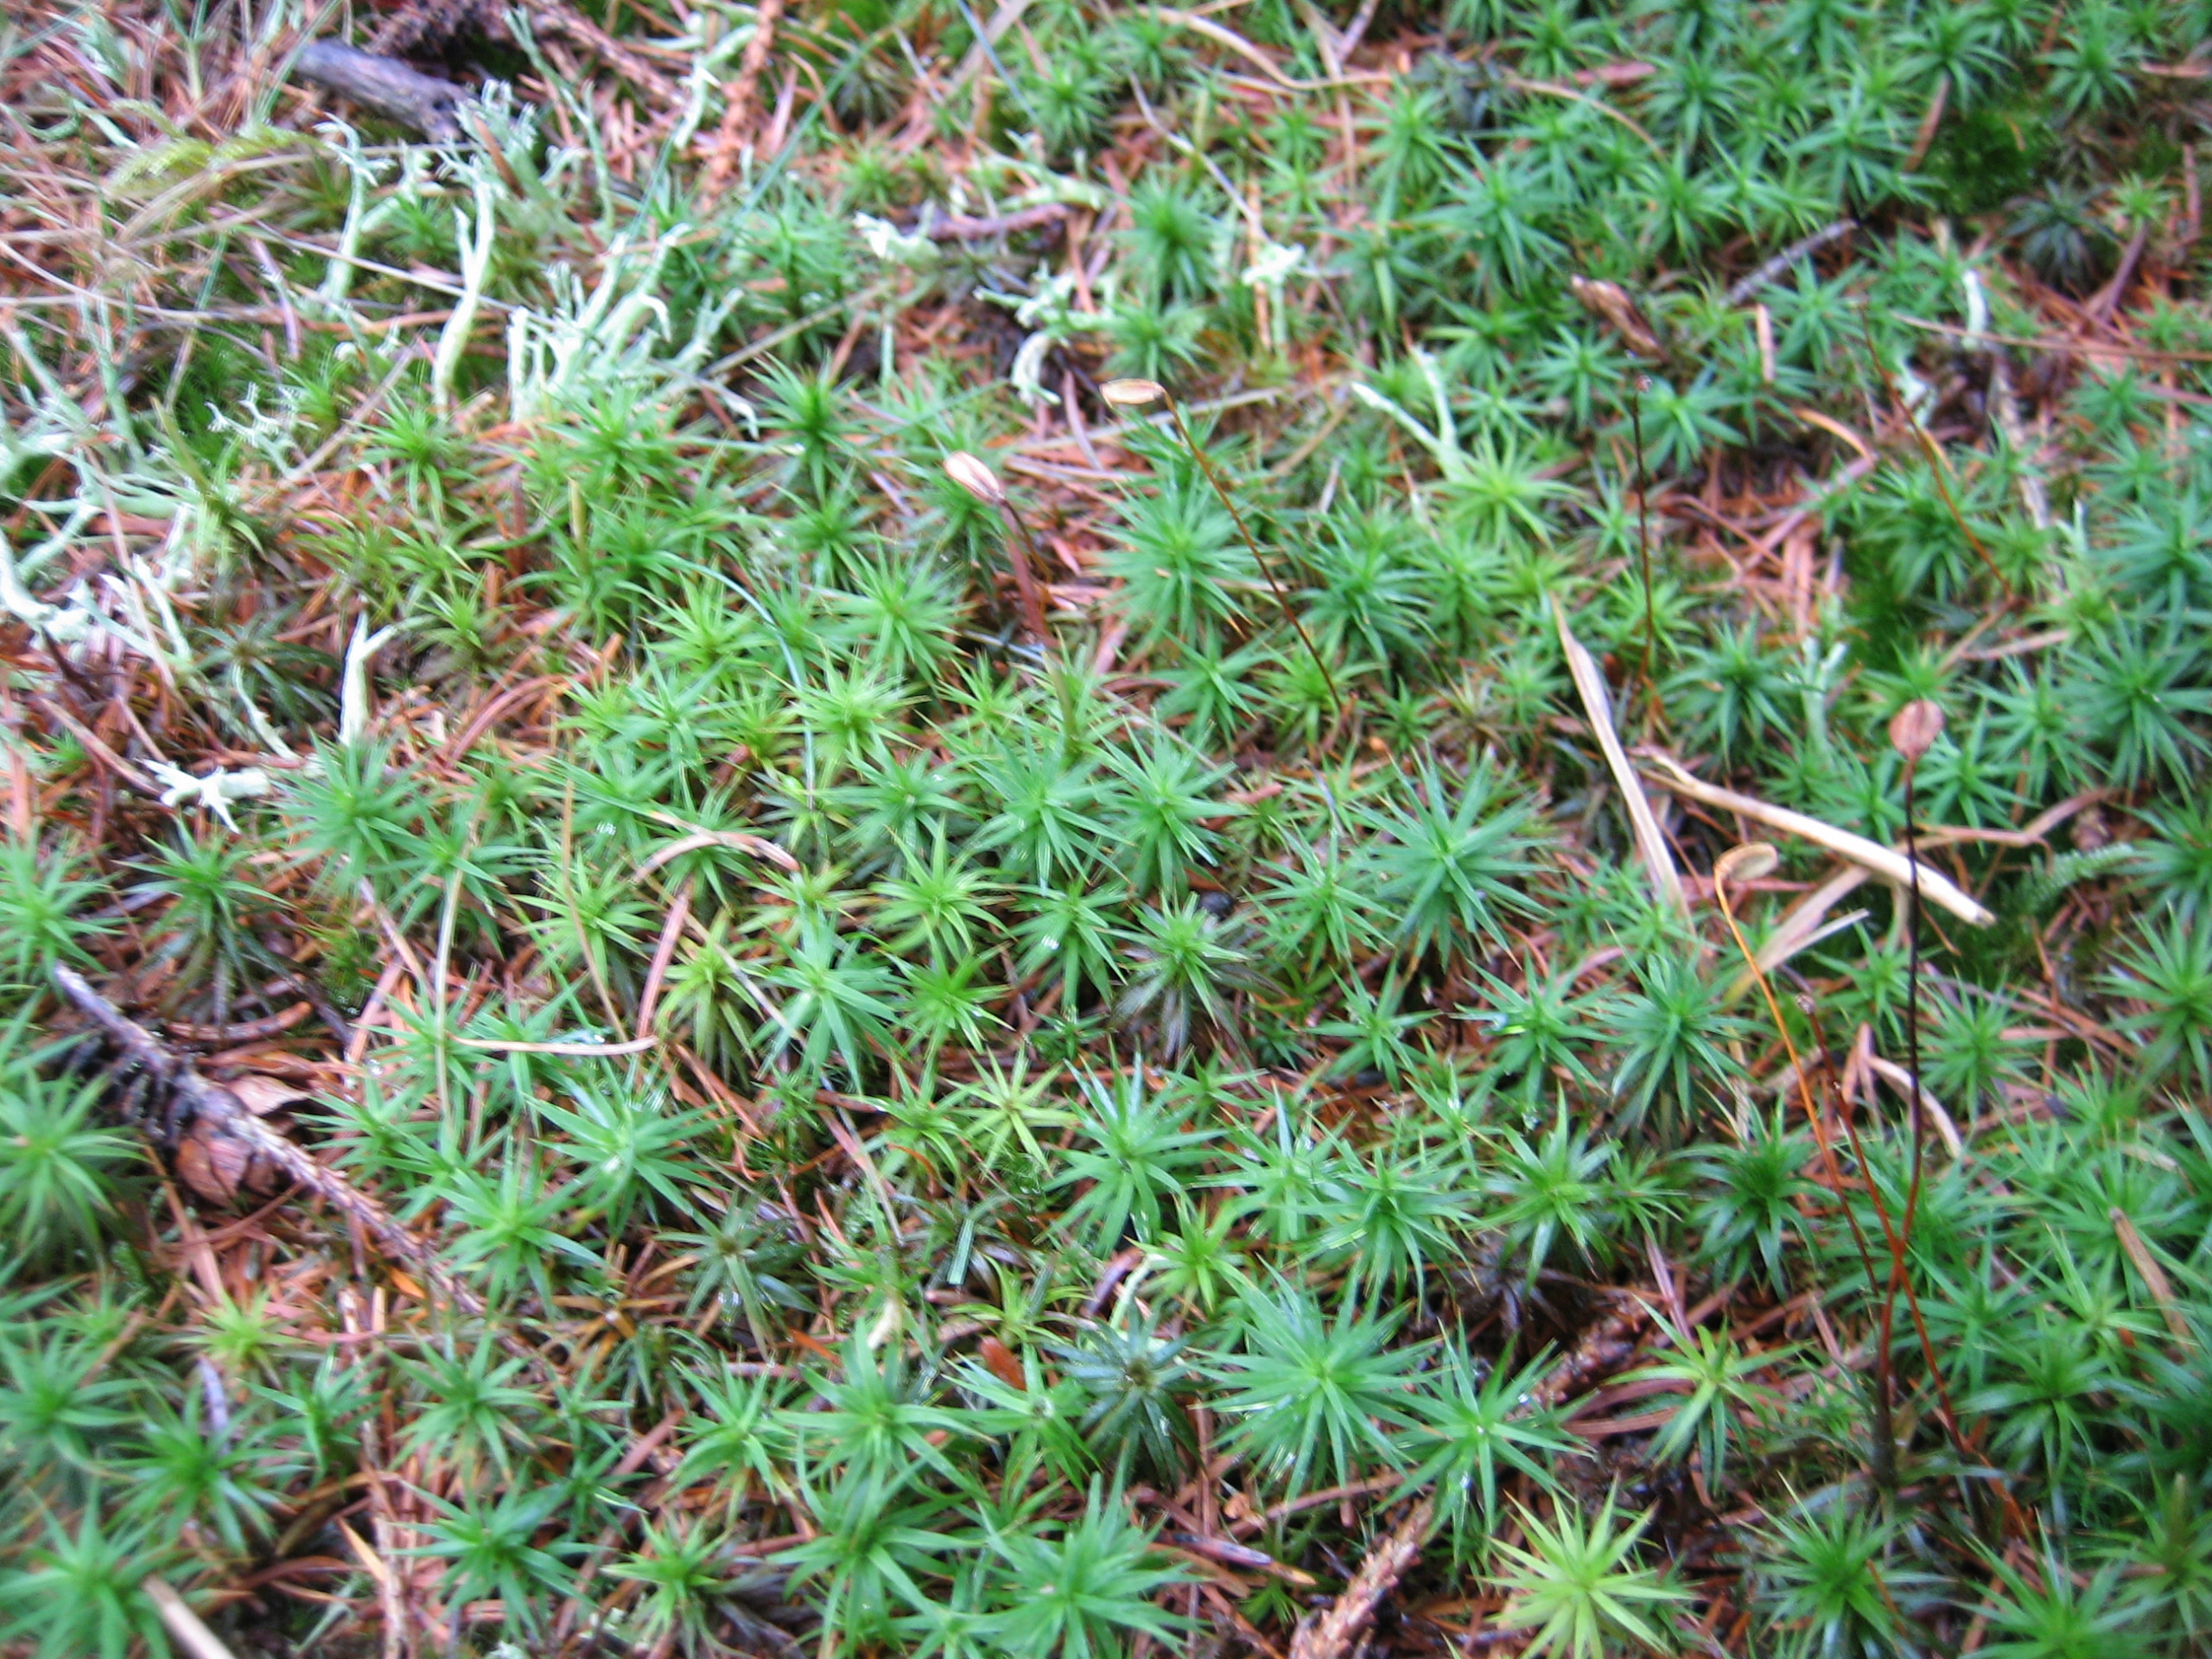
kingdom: Plantae
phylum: Bryophyta
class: Polytrichopsida
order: Polytrichales
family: Polytrichaceae
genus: Polytrichum
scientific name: Polytrichum formosum
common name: Skov-jomfruhår
